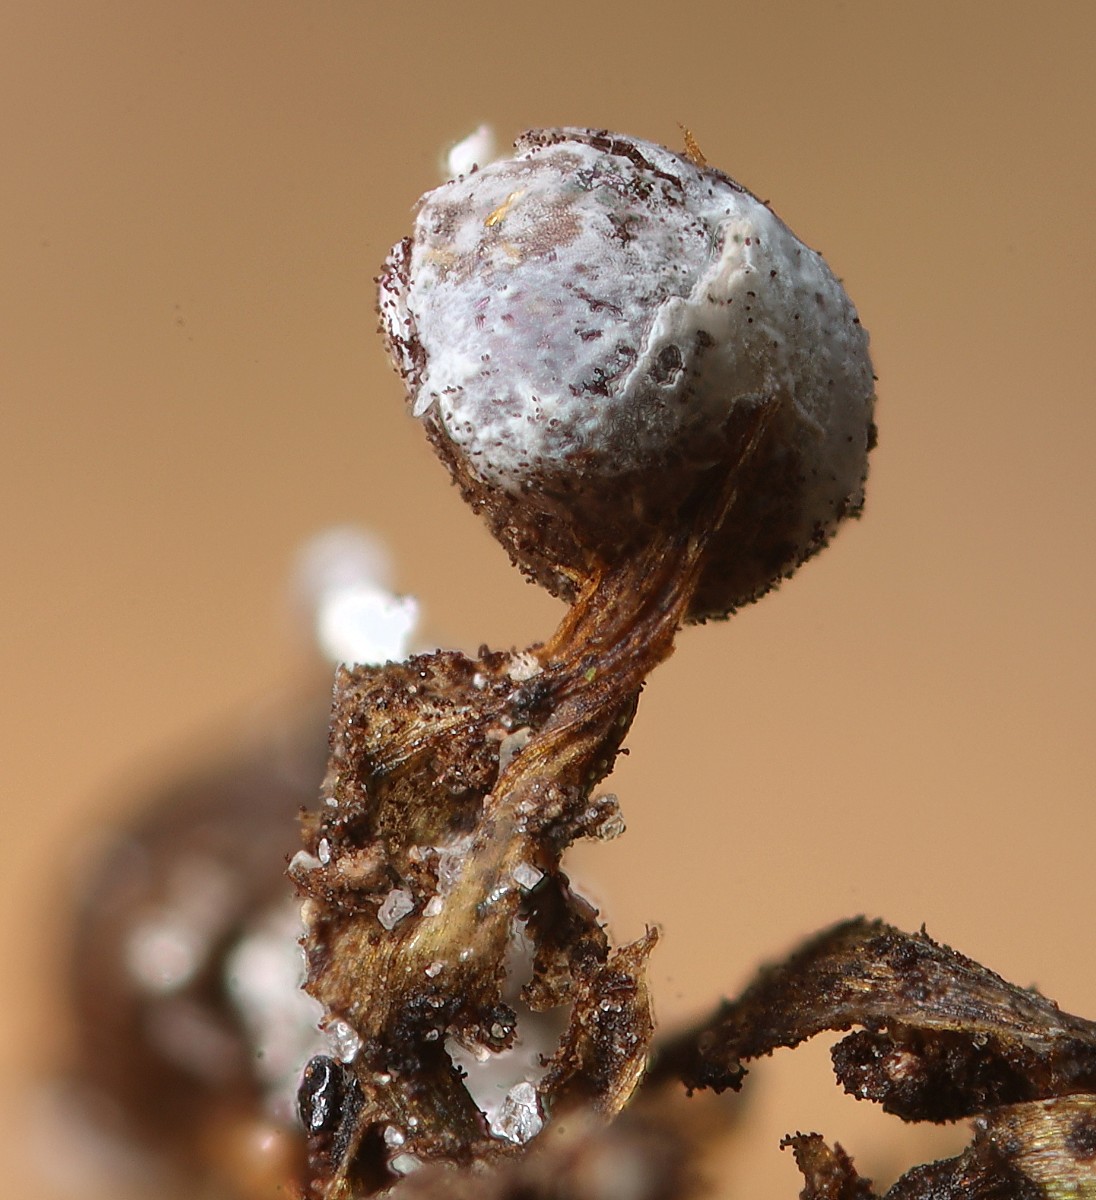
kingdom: Protozoa
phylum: Mycetozoa
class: Myxomycetes
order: Physarales
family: Physaraceae
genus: Physarum
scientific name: Physarum bitectum
